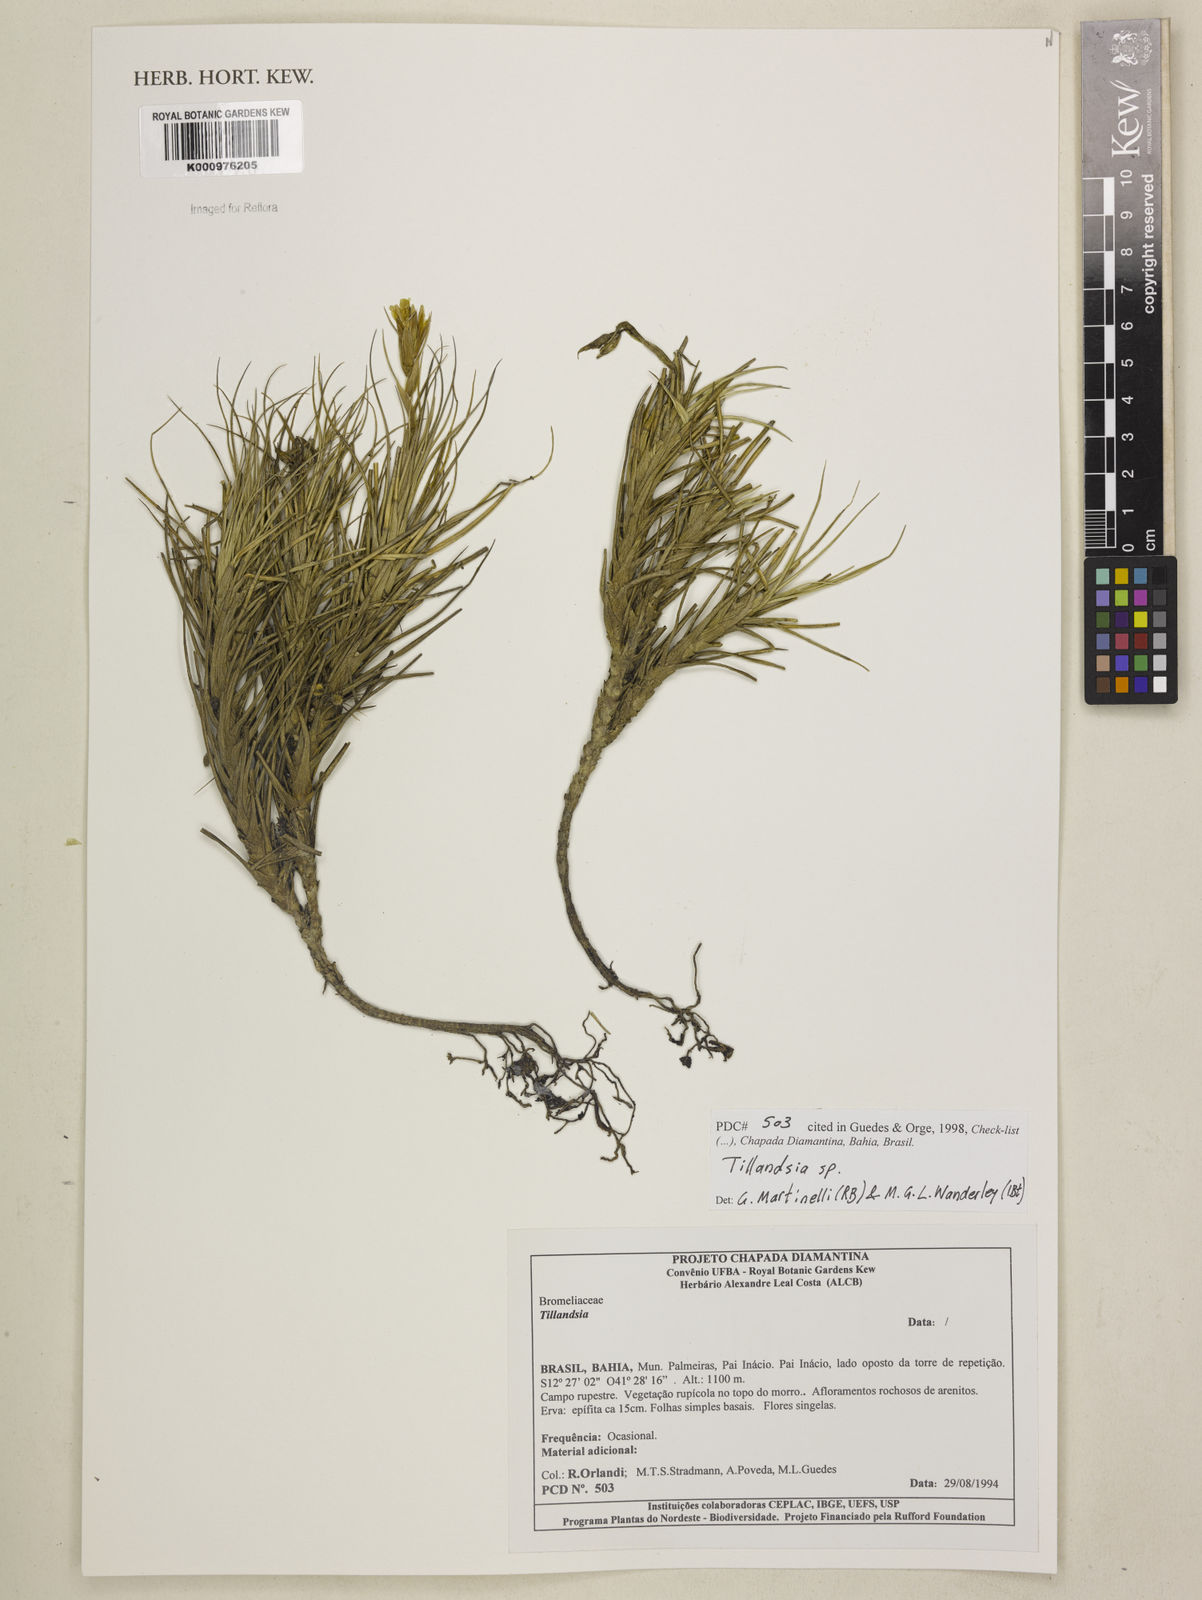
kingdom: Plantae
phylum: Tracheophyta
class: Liliopsida
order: Poales
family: Bromeliaceae
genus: Tillandsia
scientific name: Tillandsia
